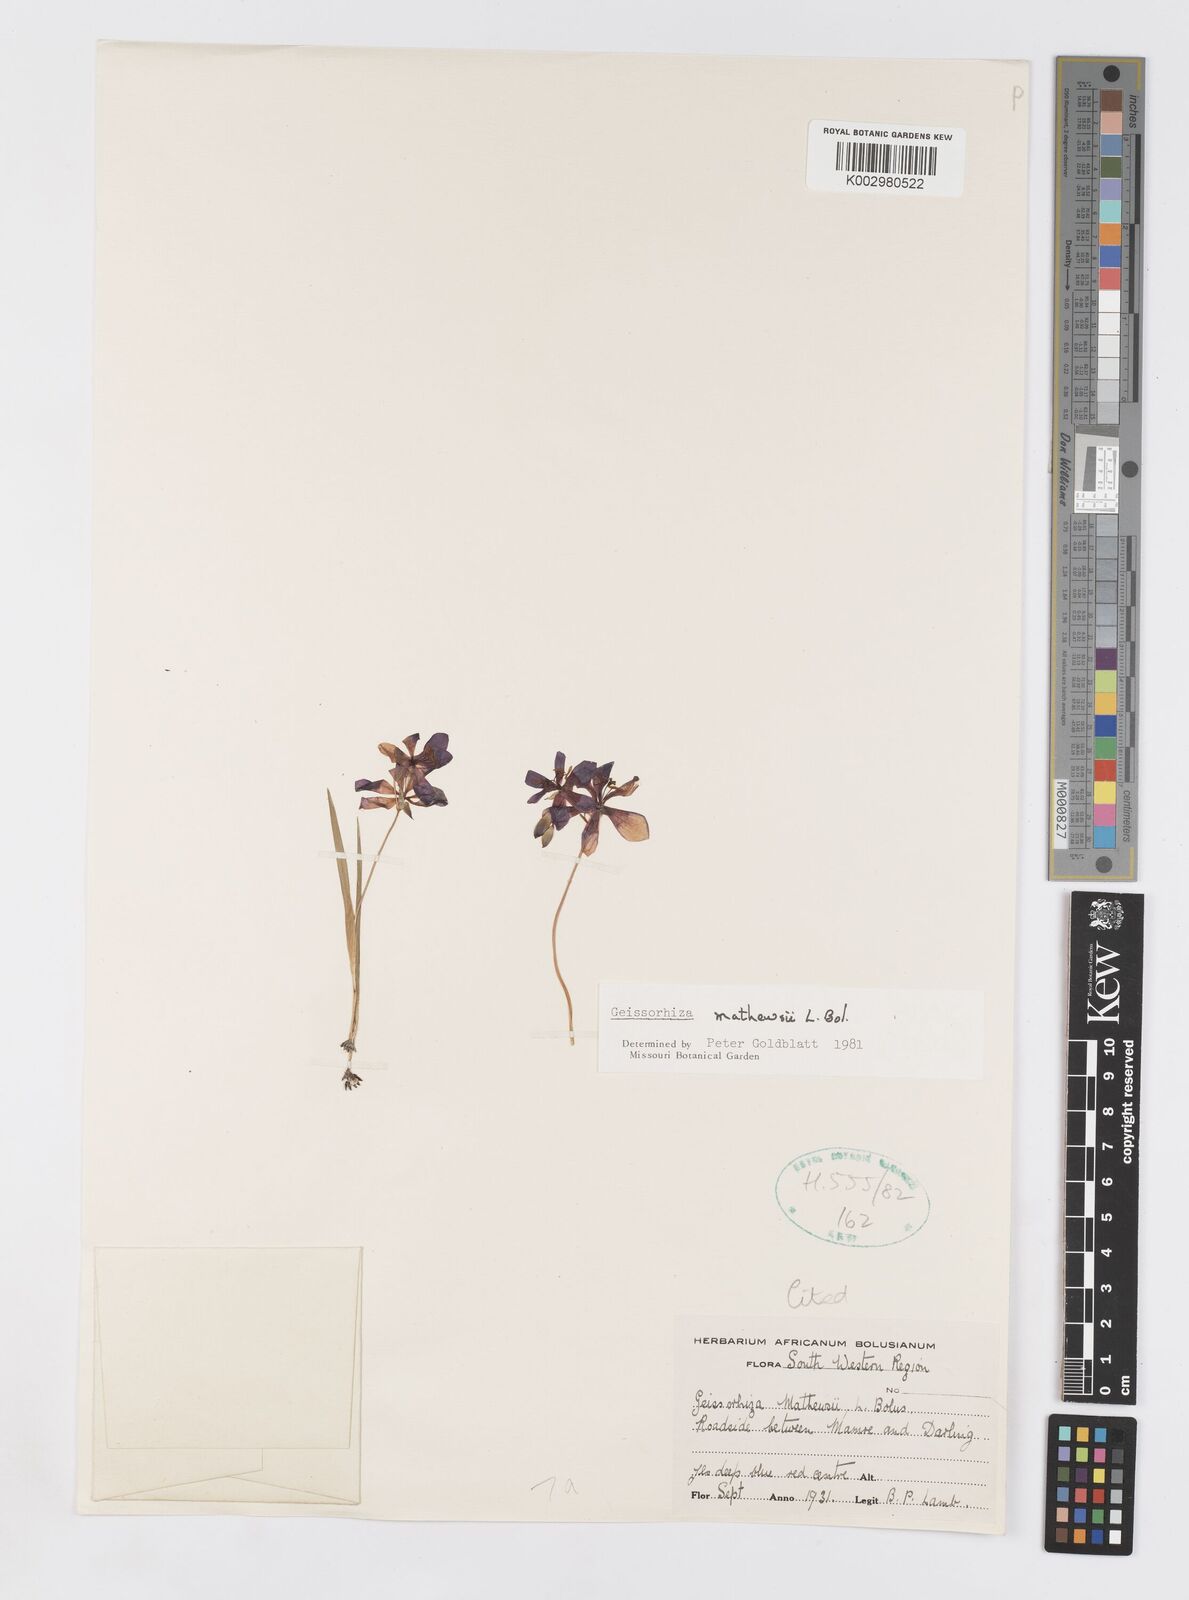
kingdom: Plantae
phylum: Tracheophyta
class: Liliopsida
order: Asparagales
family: Iridaceae
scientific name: Iridaceae
